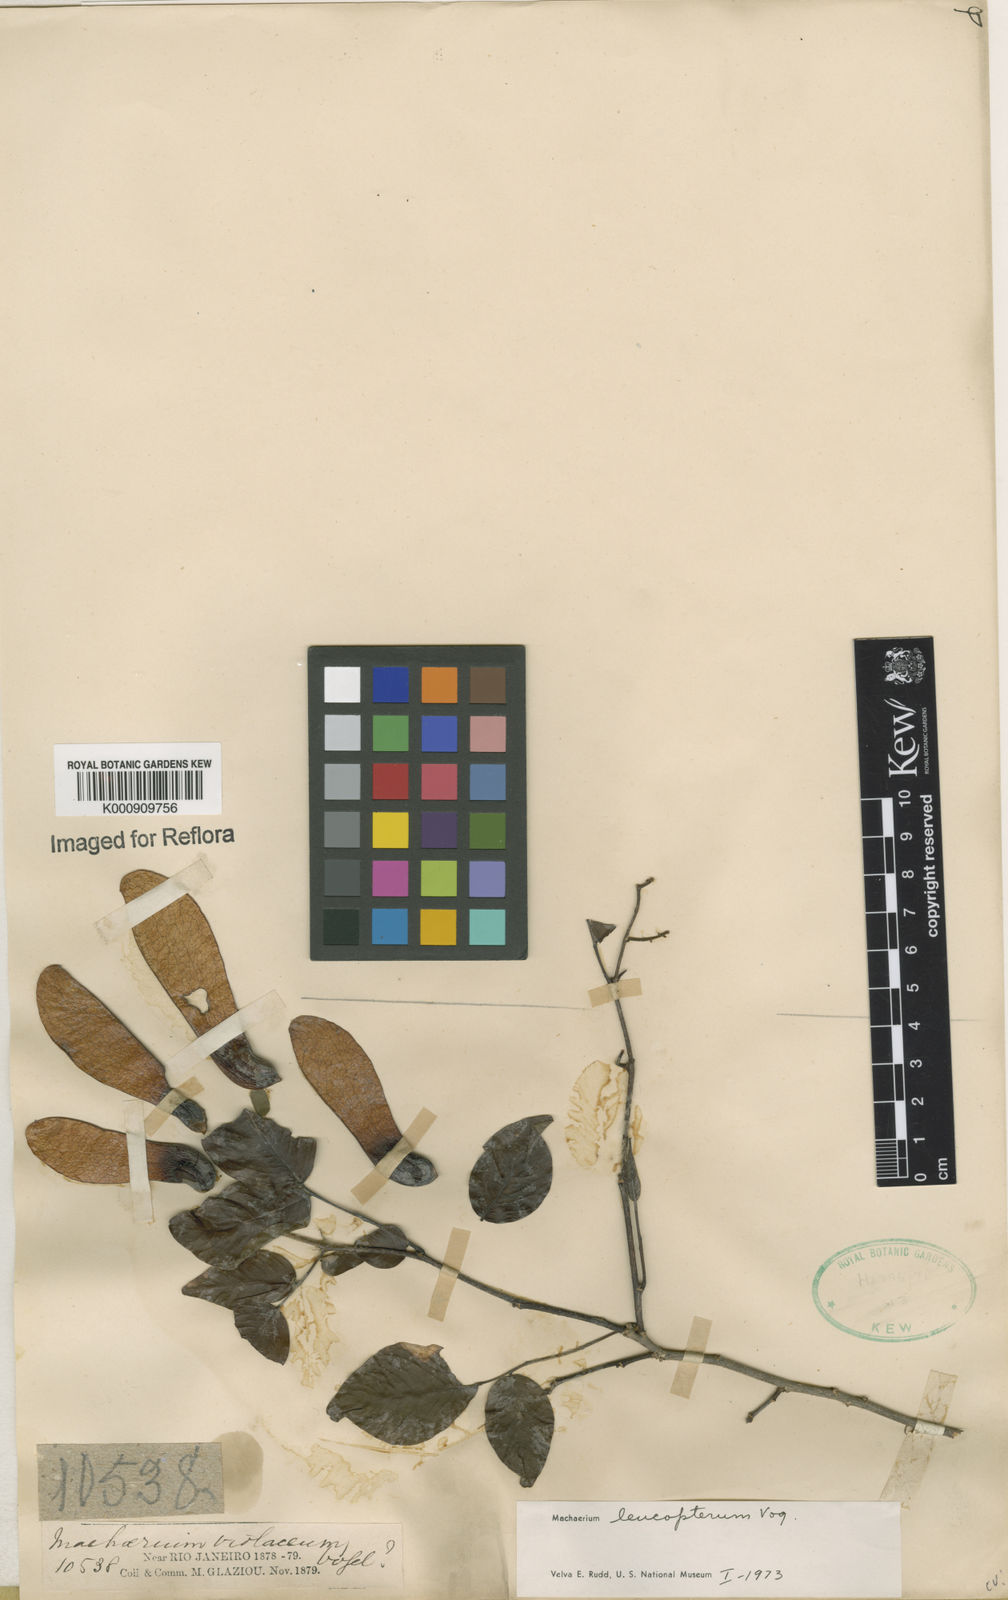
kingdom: Plantae
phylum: Tracheophyta
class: Magnoliopsida
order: Fabales
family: Fabaceae
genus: Machaerium
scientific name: Machaerium leucopterum
